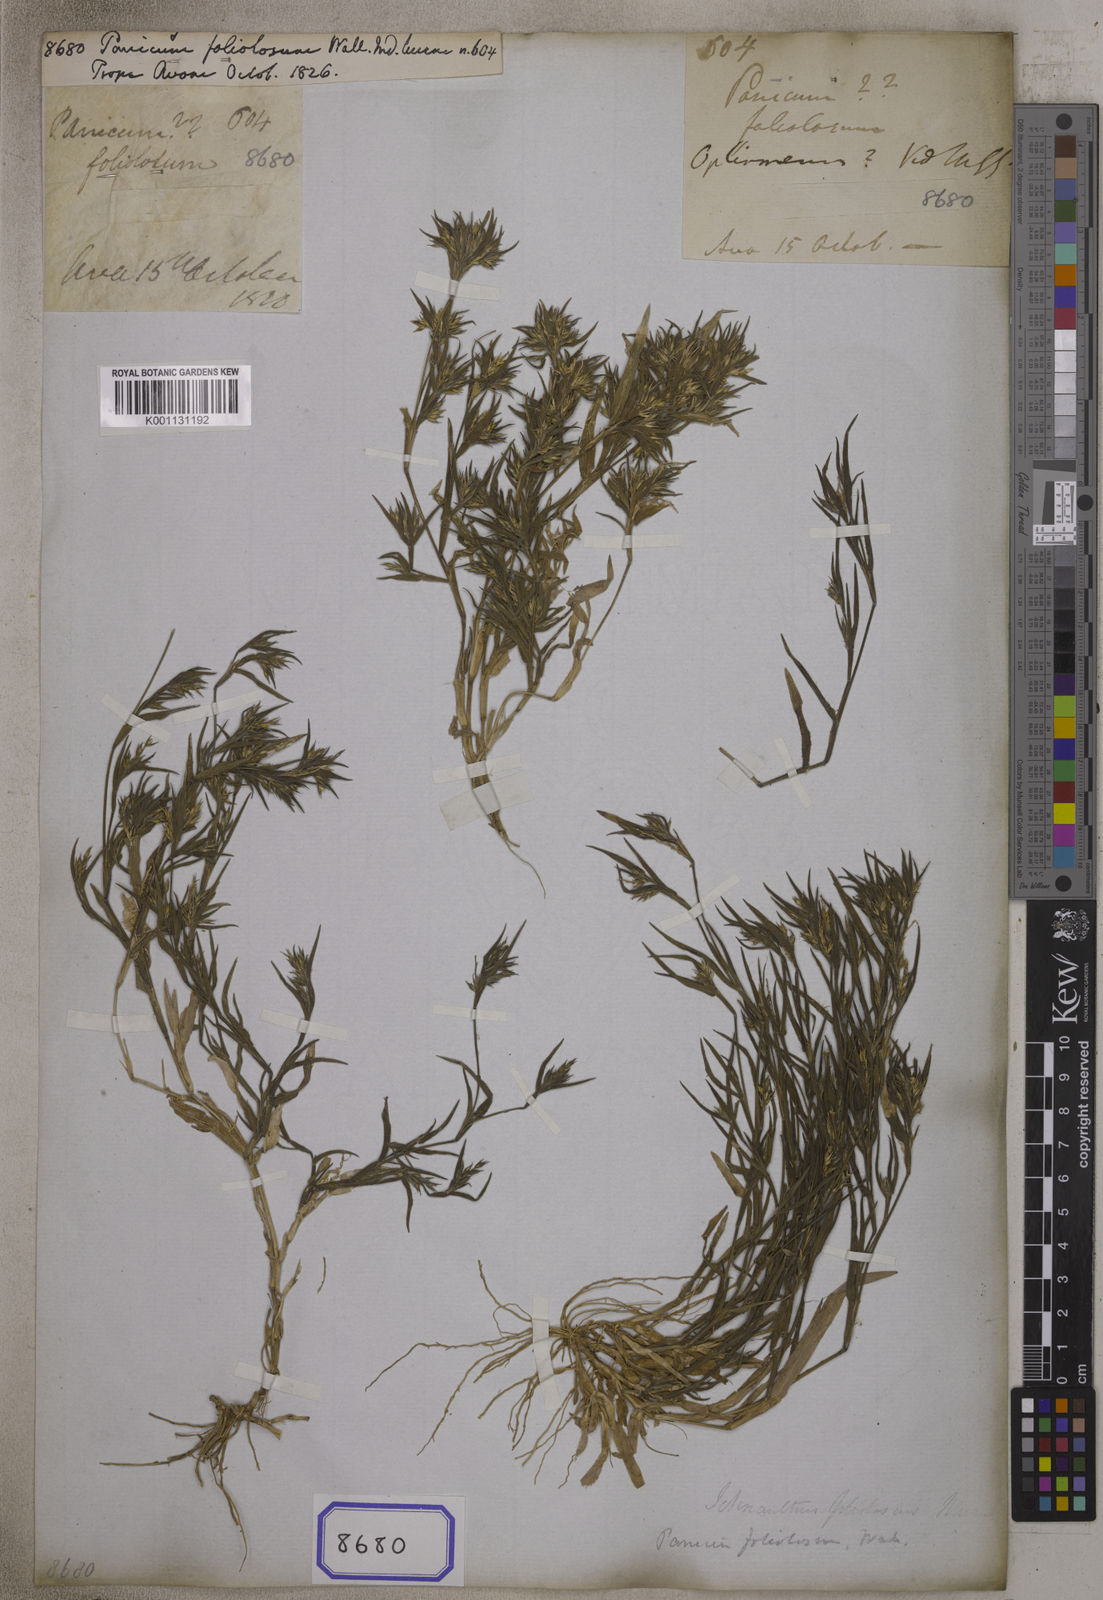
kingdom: Plantae
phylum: Tracheophyta
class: Liliopsida
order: Poales
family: Poaceae
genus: Panicum
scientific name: Panicum
